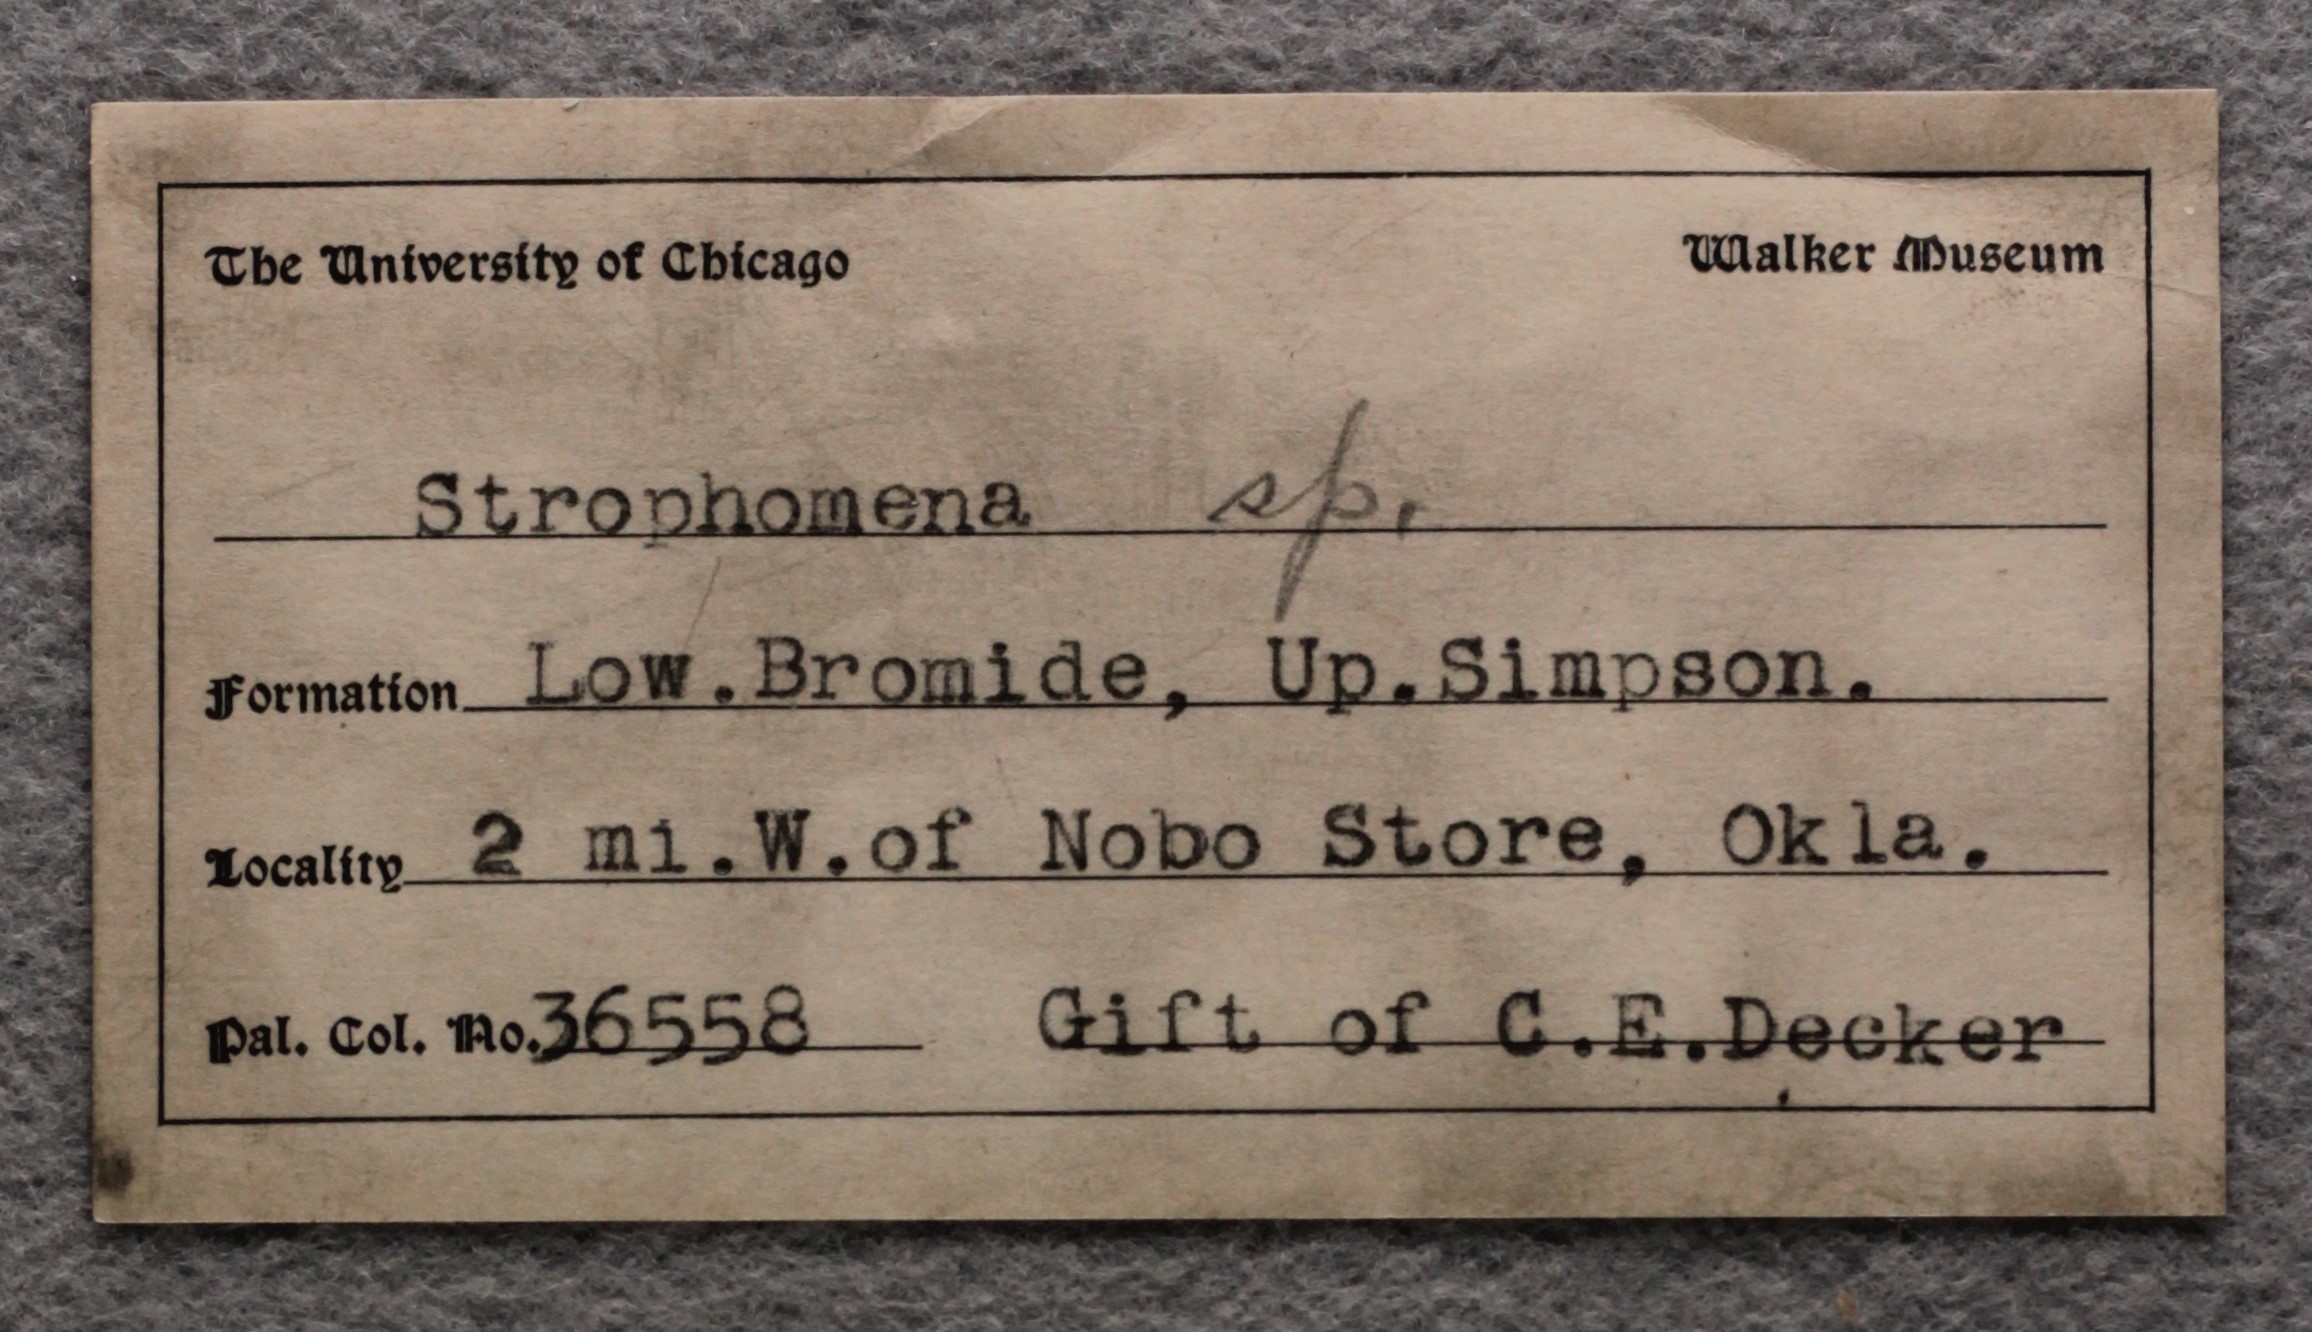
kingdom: Animalia
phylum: Brachiopoda
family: Strophomenidae
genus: Strophomena
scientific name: Strophomena
